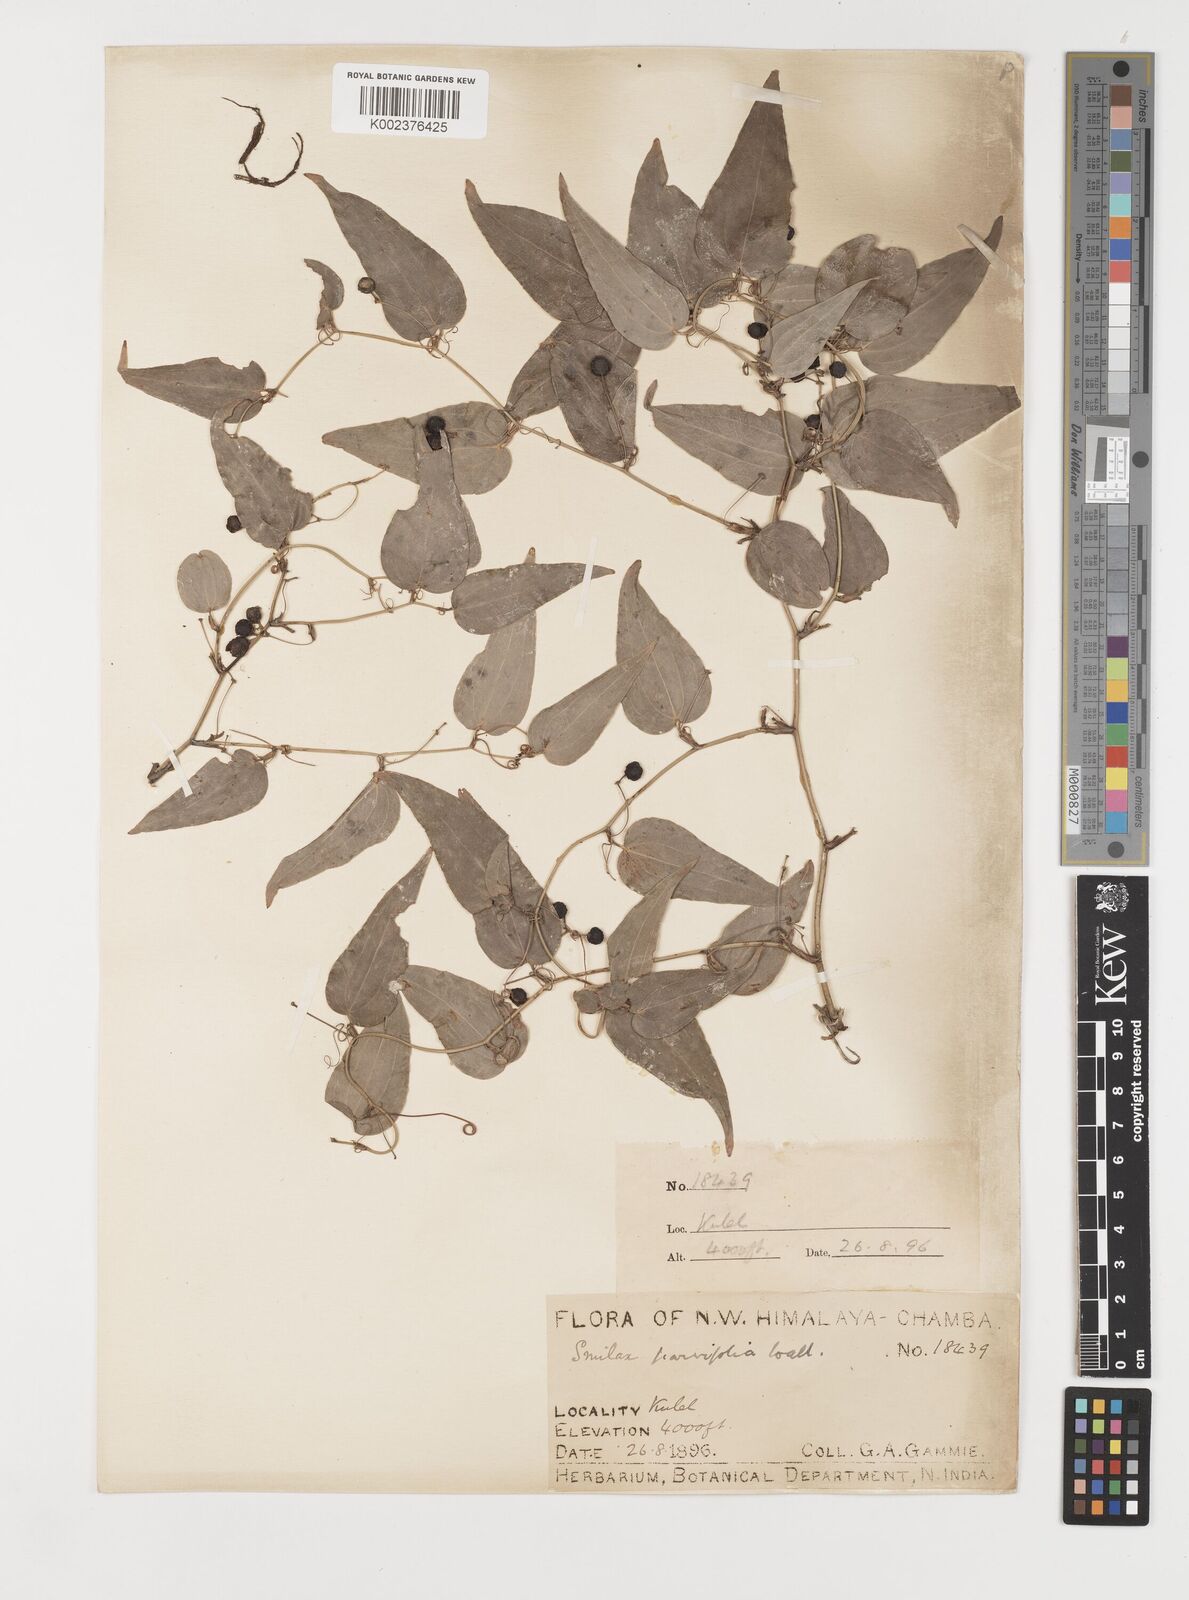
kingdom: Plantae
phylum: Tracheophyta
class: Liliopsida
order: Liliales
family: Smilacaceae
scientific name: Smilacaceae
